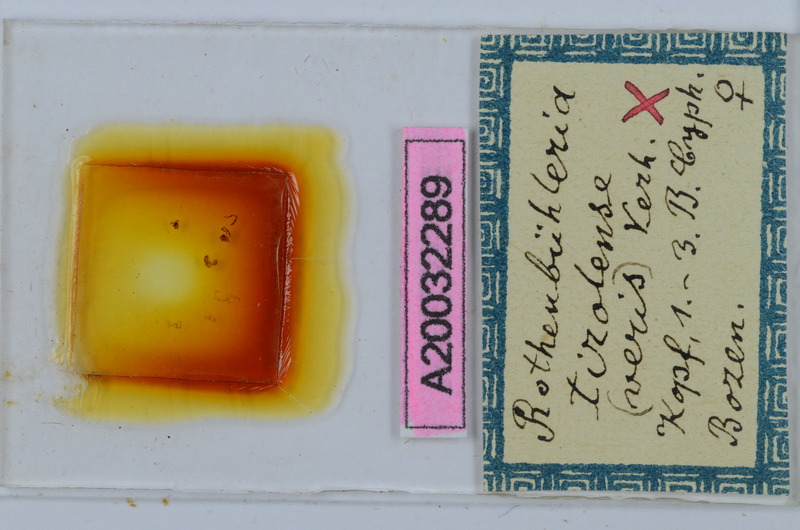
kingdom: Animalia
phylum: Arthropoda
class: Diplopoda
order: Chordeumatida
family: Craspedosomatidae
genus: Rothenbuehleria
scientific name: Rothenbuehleria tirolense
